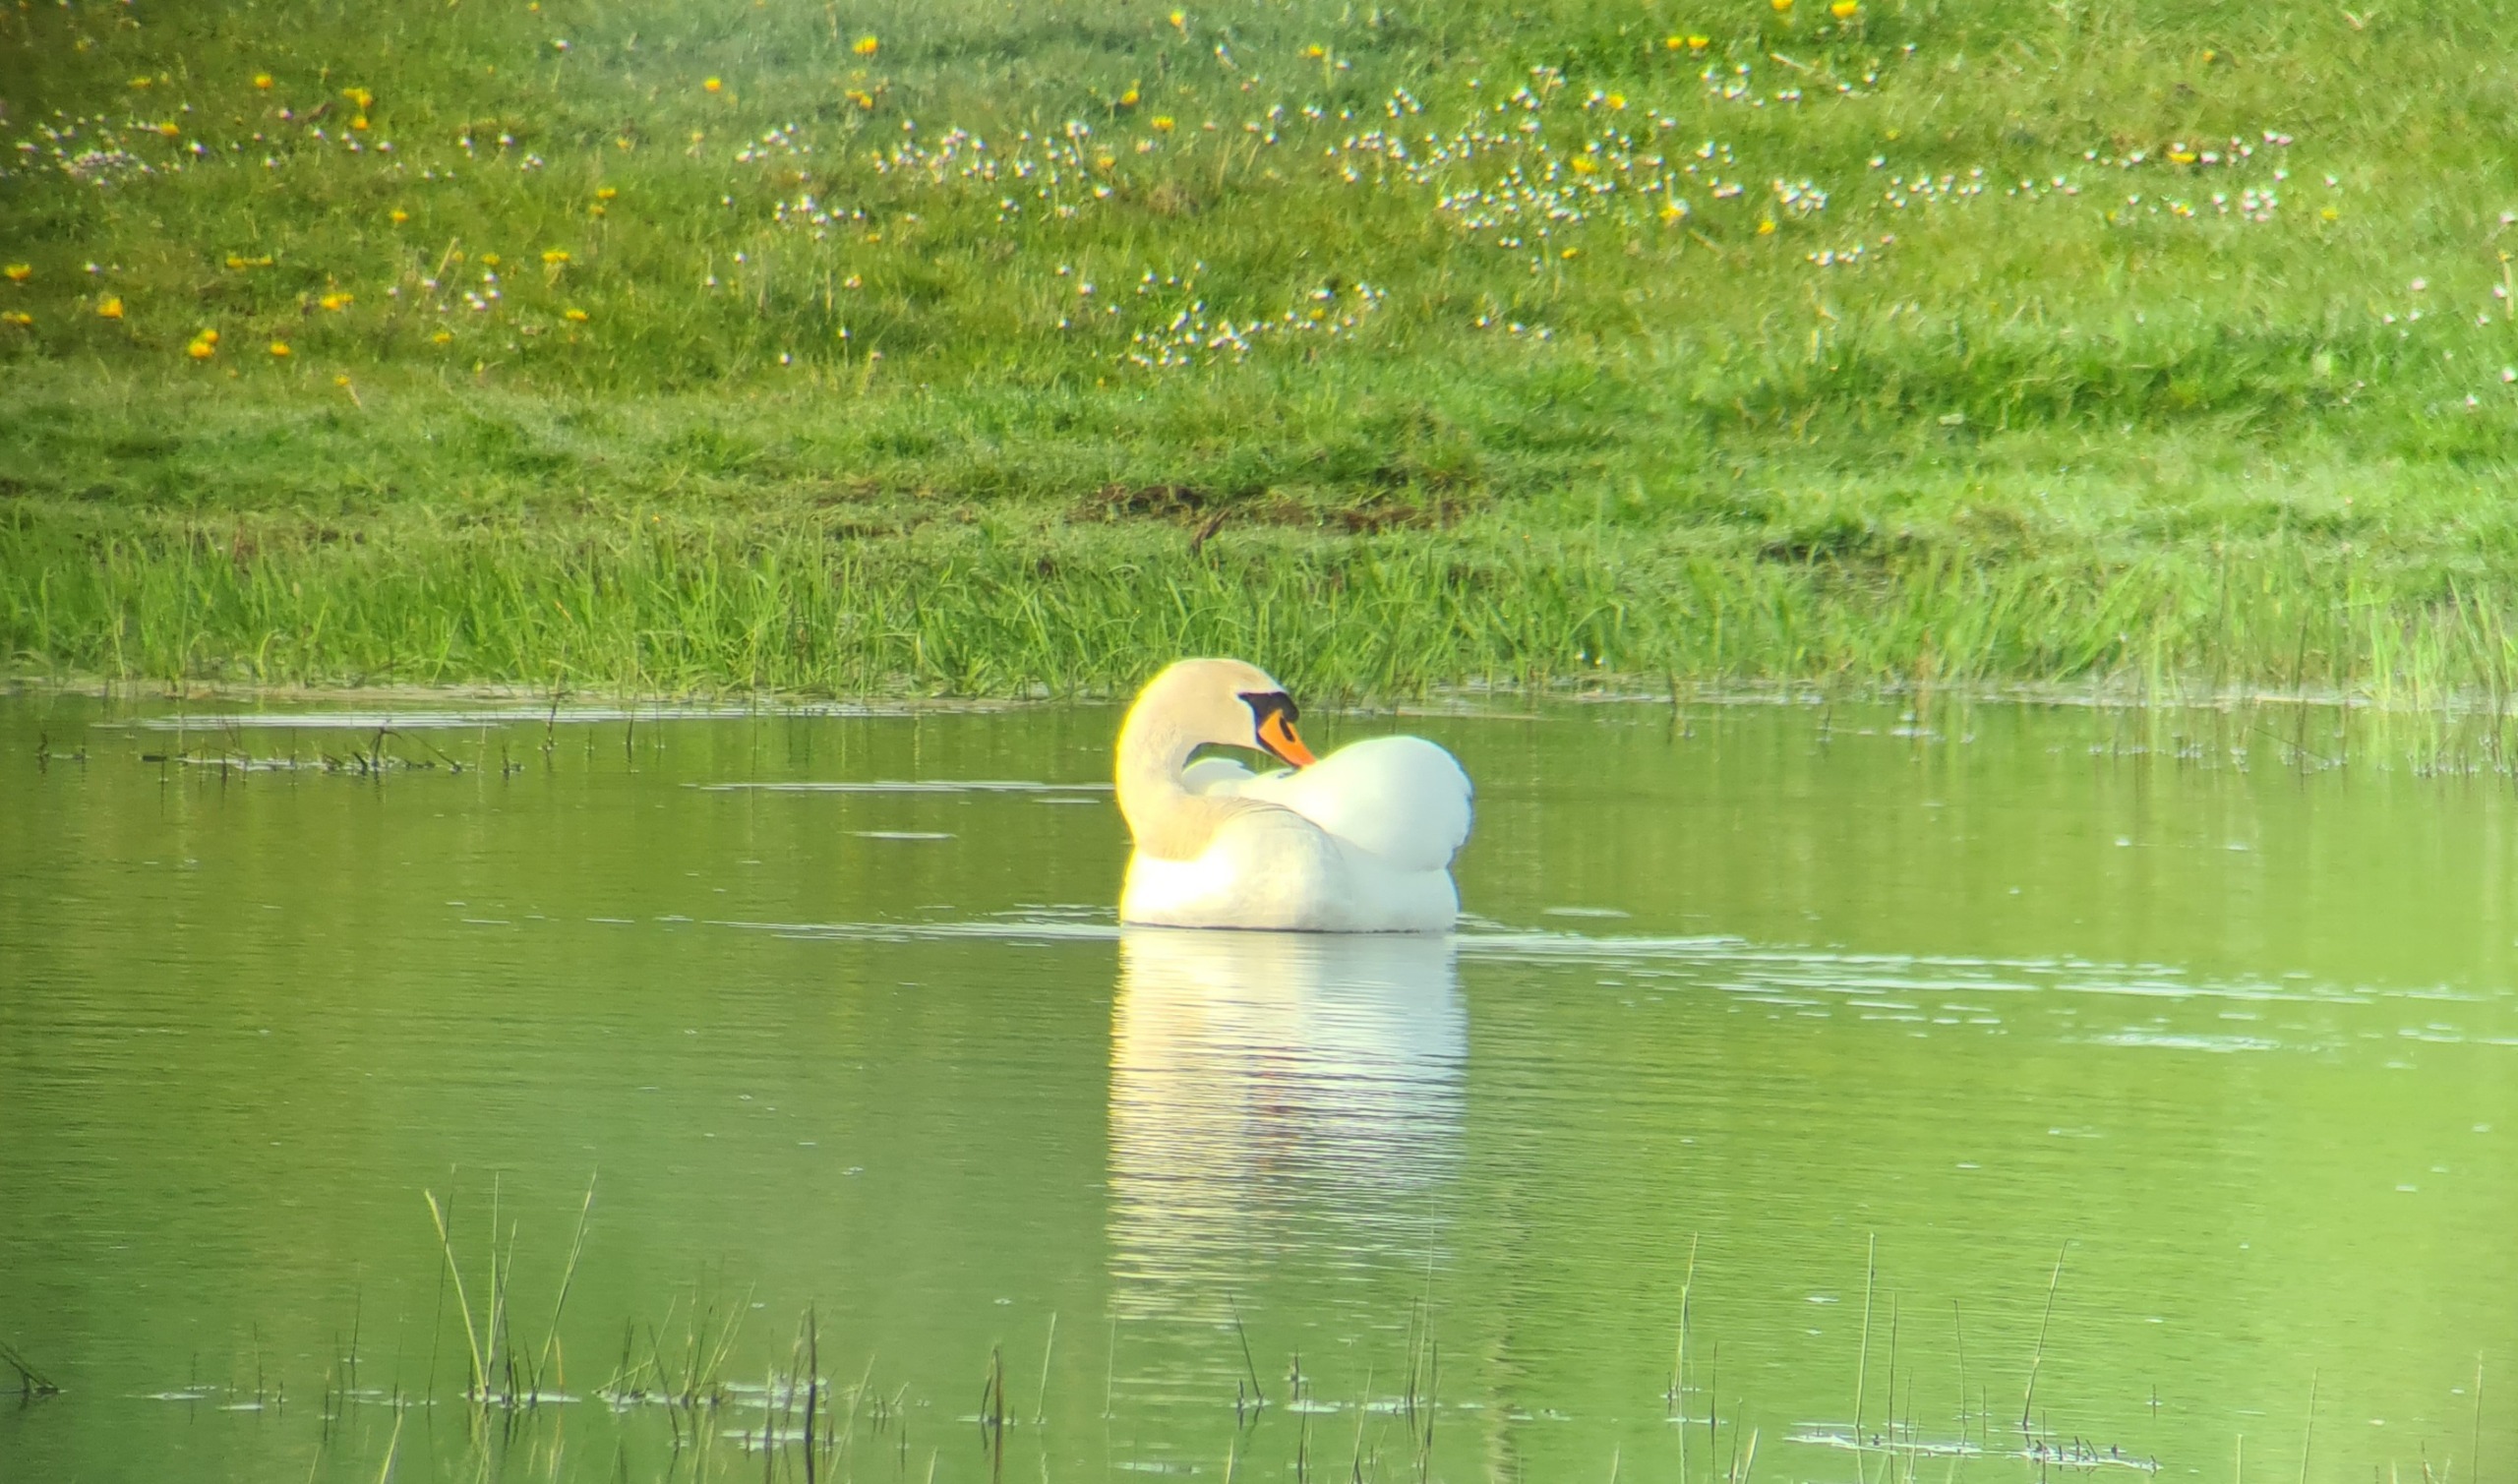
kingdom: Animalia
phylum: Chordata
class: Aves
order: Anseriformes
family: Anatidae
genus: Cygnus
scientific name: Cygnus olor
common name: Knopsvane
